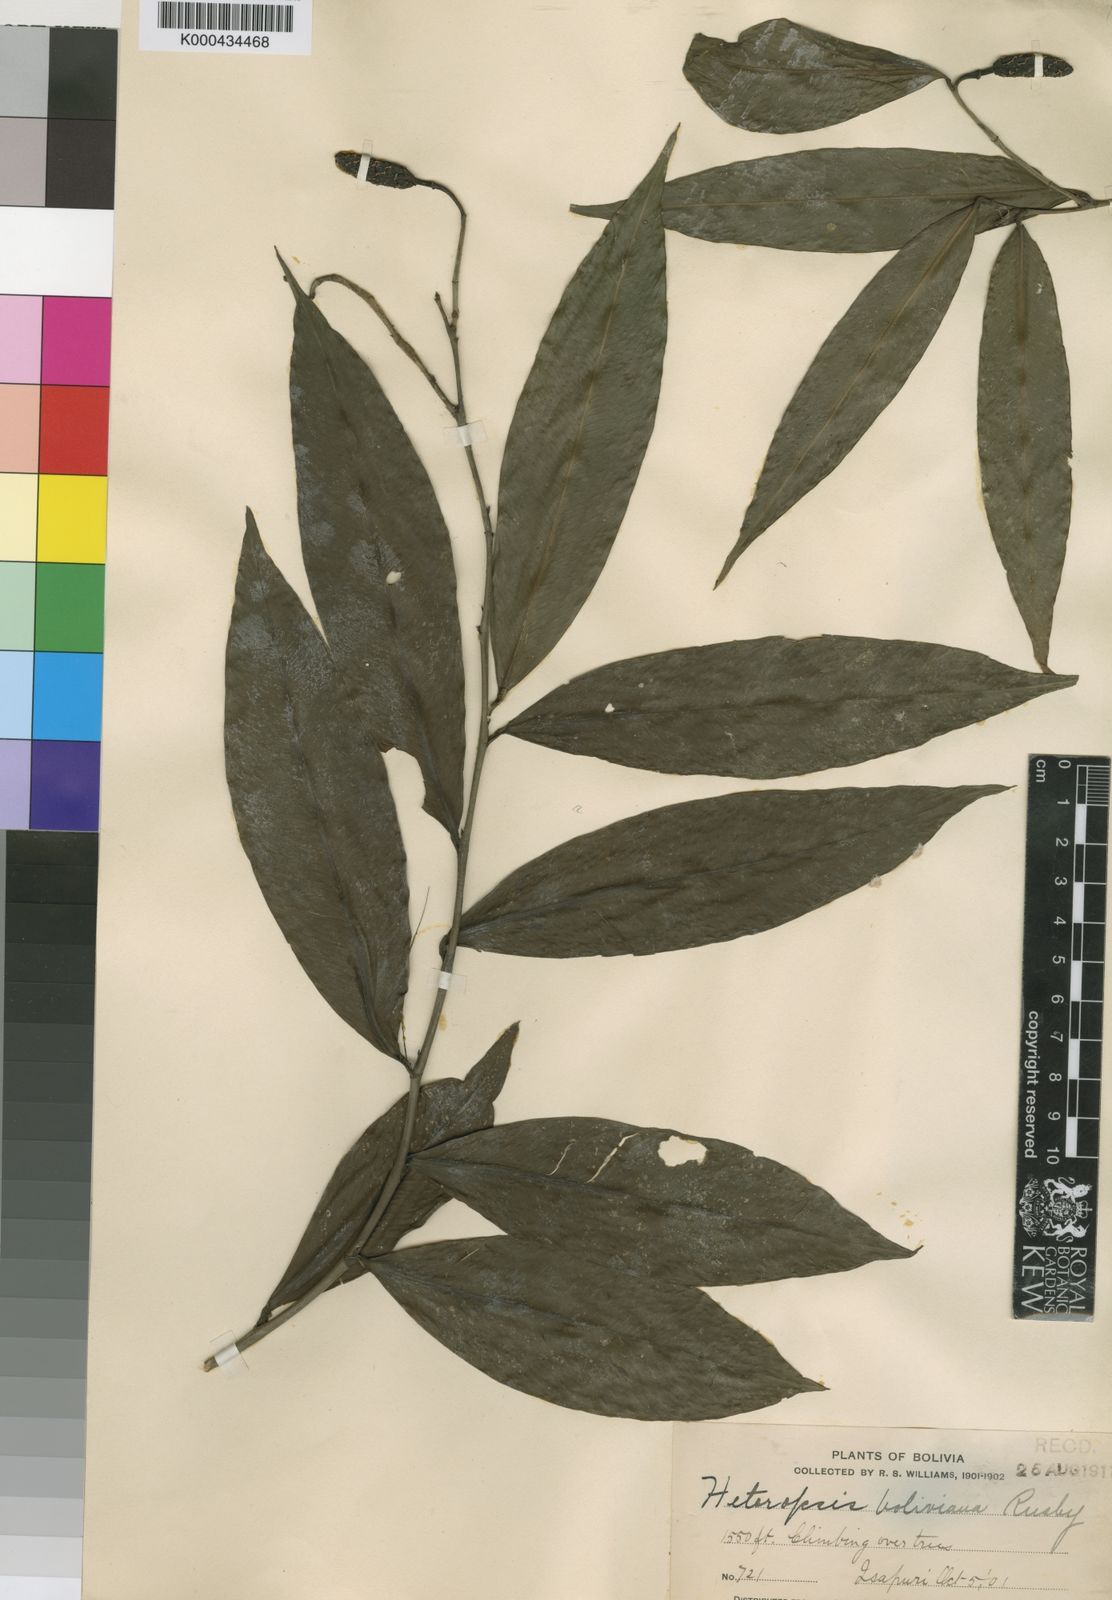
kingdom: Plantae
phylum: Tracheophyta
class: Liliopsida
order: Alismatales
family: Araceae
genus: Heteropsis
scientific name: Heteropsis boliviana
